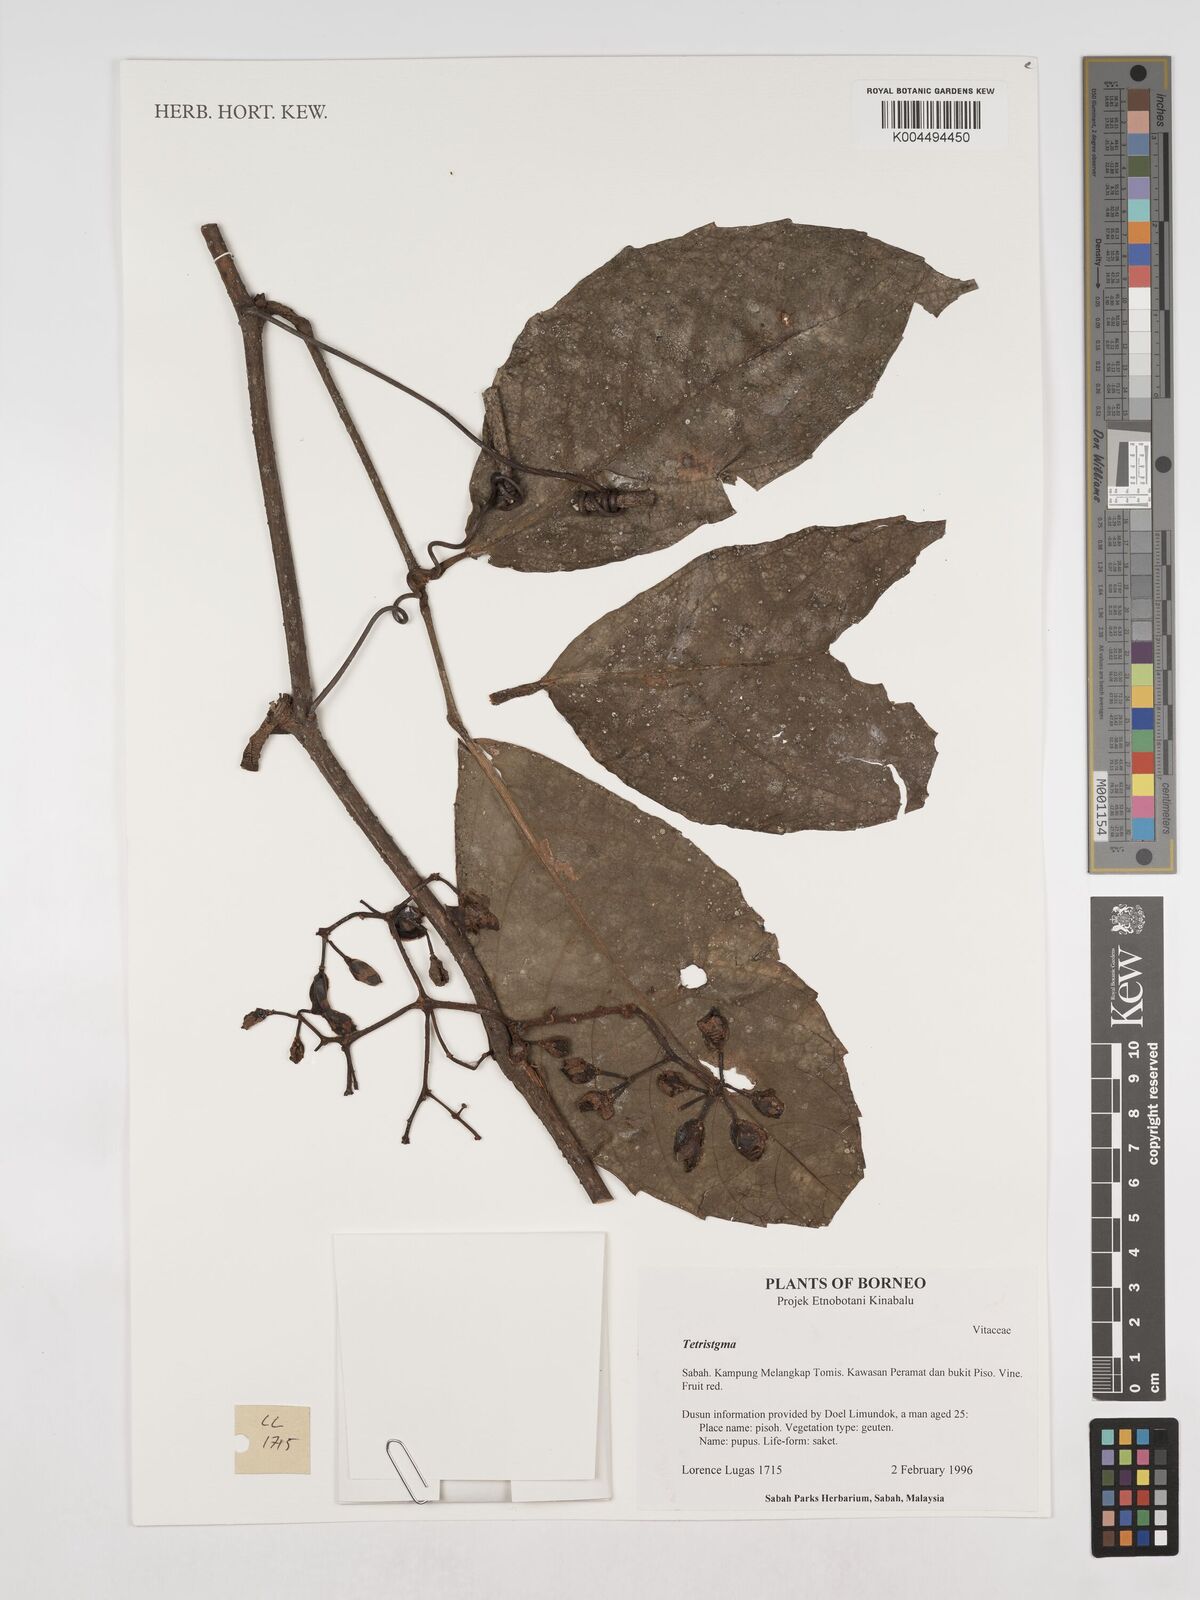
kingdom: Plantae
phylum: Tracheophyta
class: Magnoliopsida
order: Vitales
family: Vitaceae
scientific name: Vitaceae
